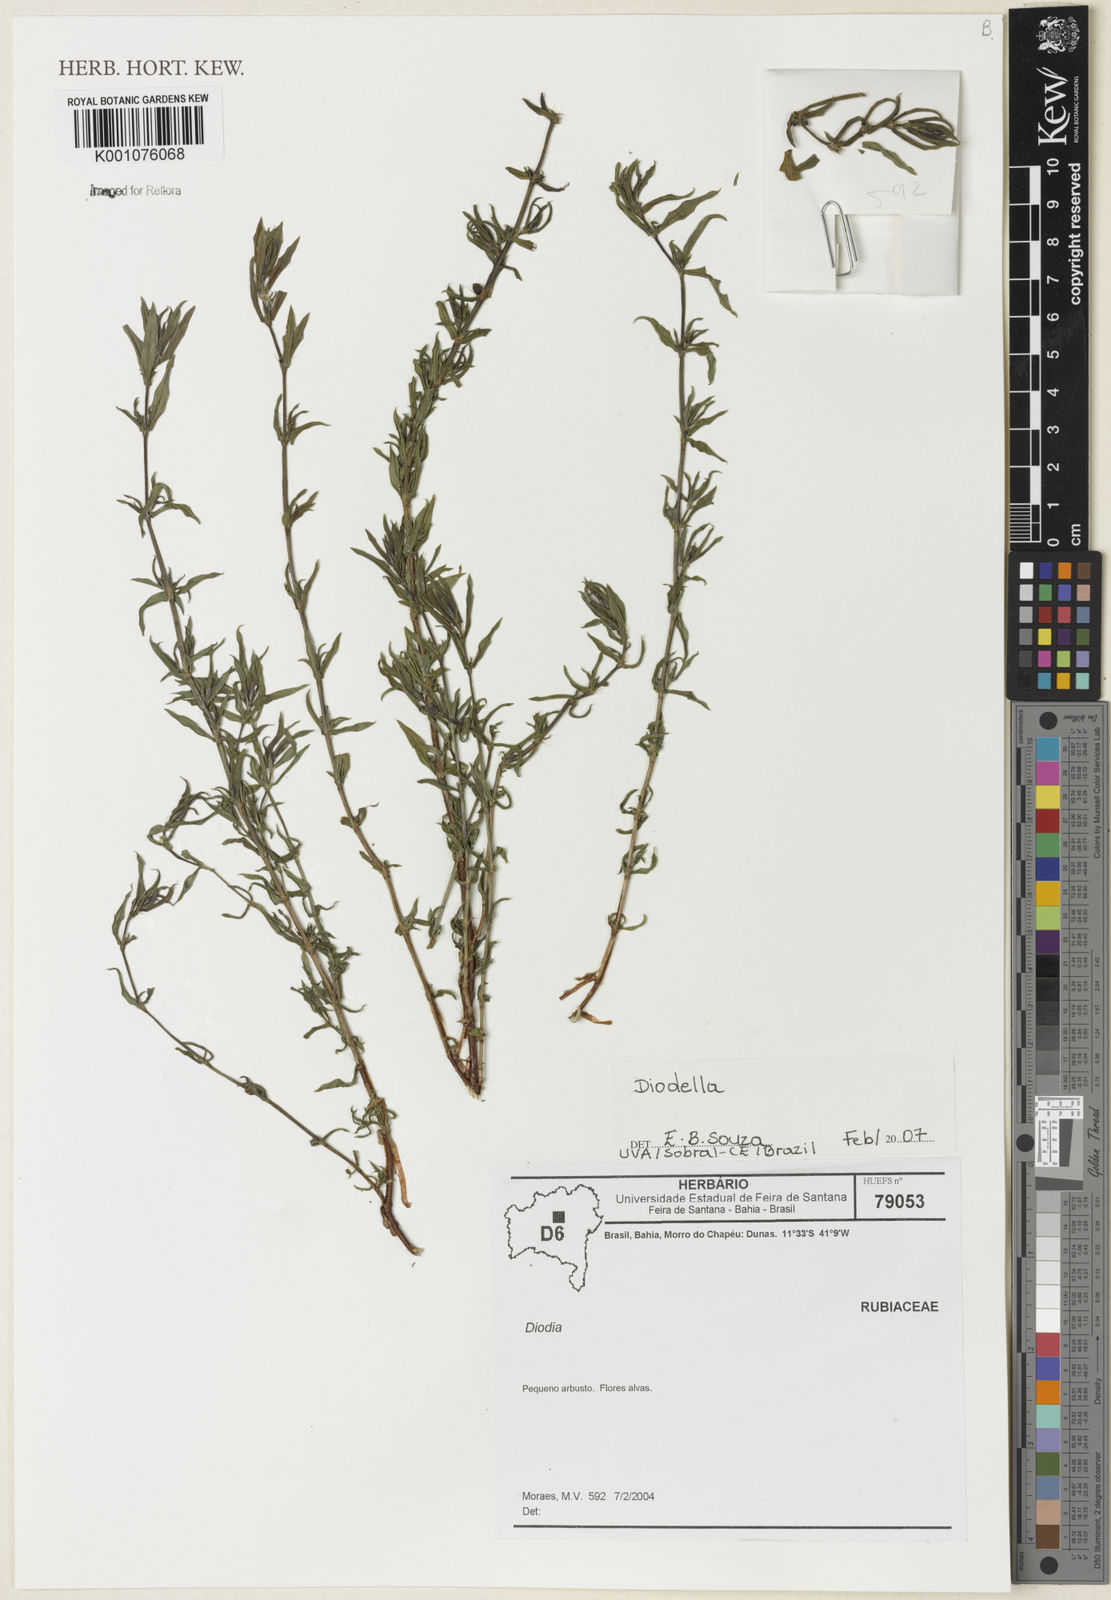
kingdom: Plantae
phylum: Tracheophyta
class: Magnoliopsida
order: Gentianales
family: Rubiaceae
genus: Diodia
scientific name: Diodia
